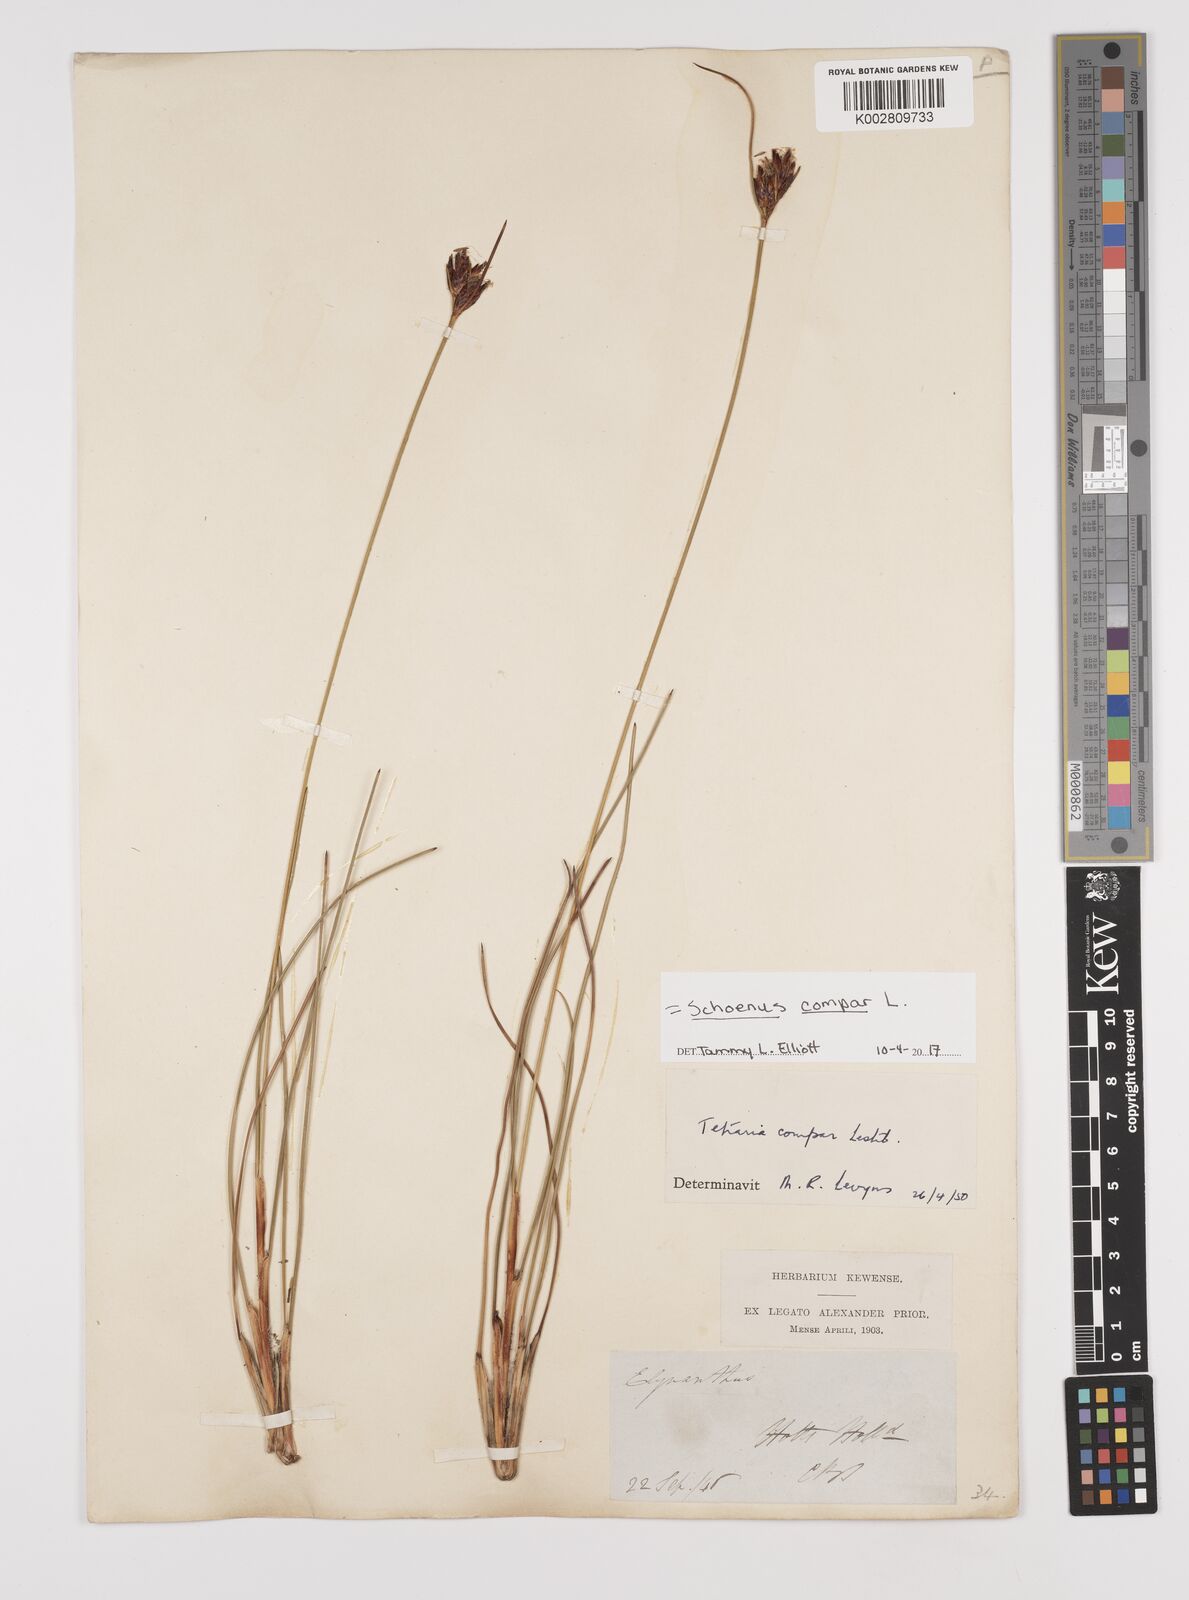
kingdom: Plantae
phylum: Tracheophyta
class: Liliopsida
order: Poales
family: Cyperaceae
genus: Schoenus
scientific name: Schoenus compar
